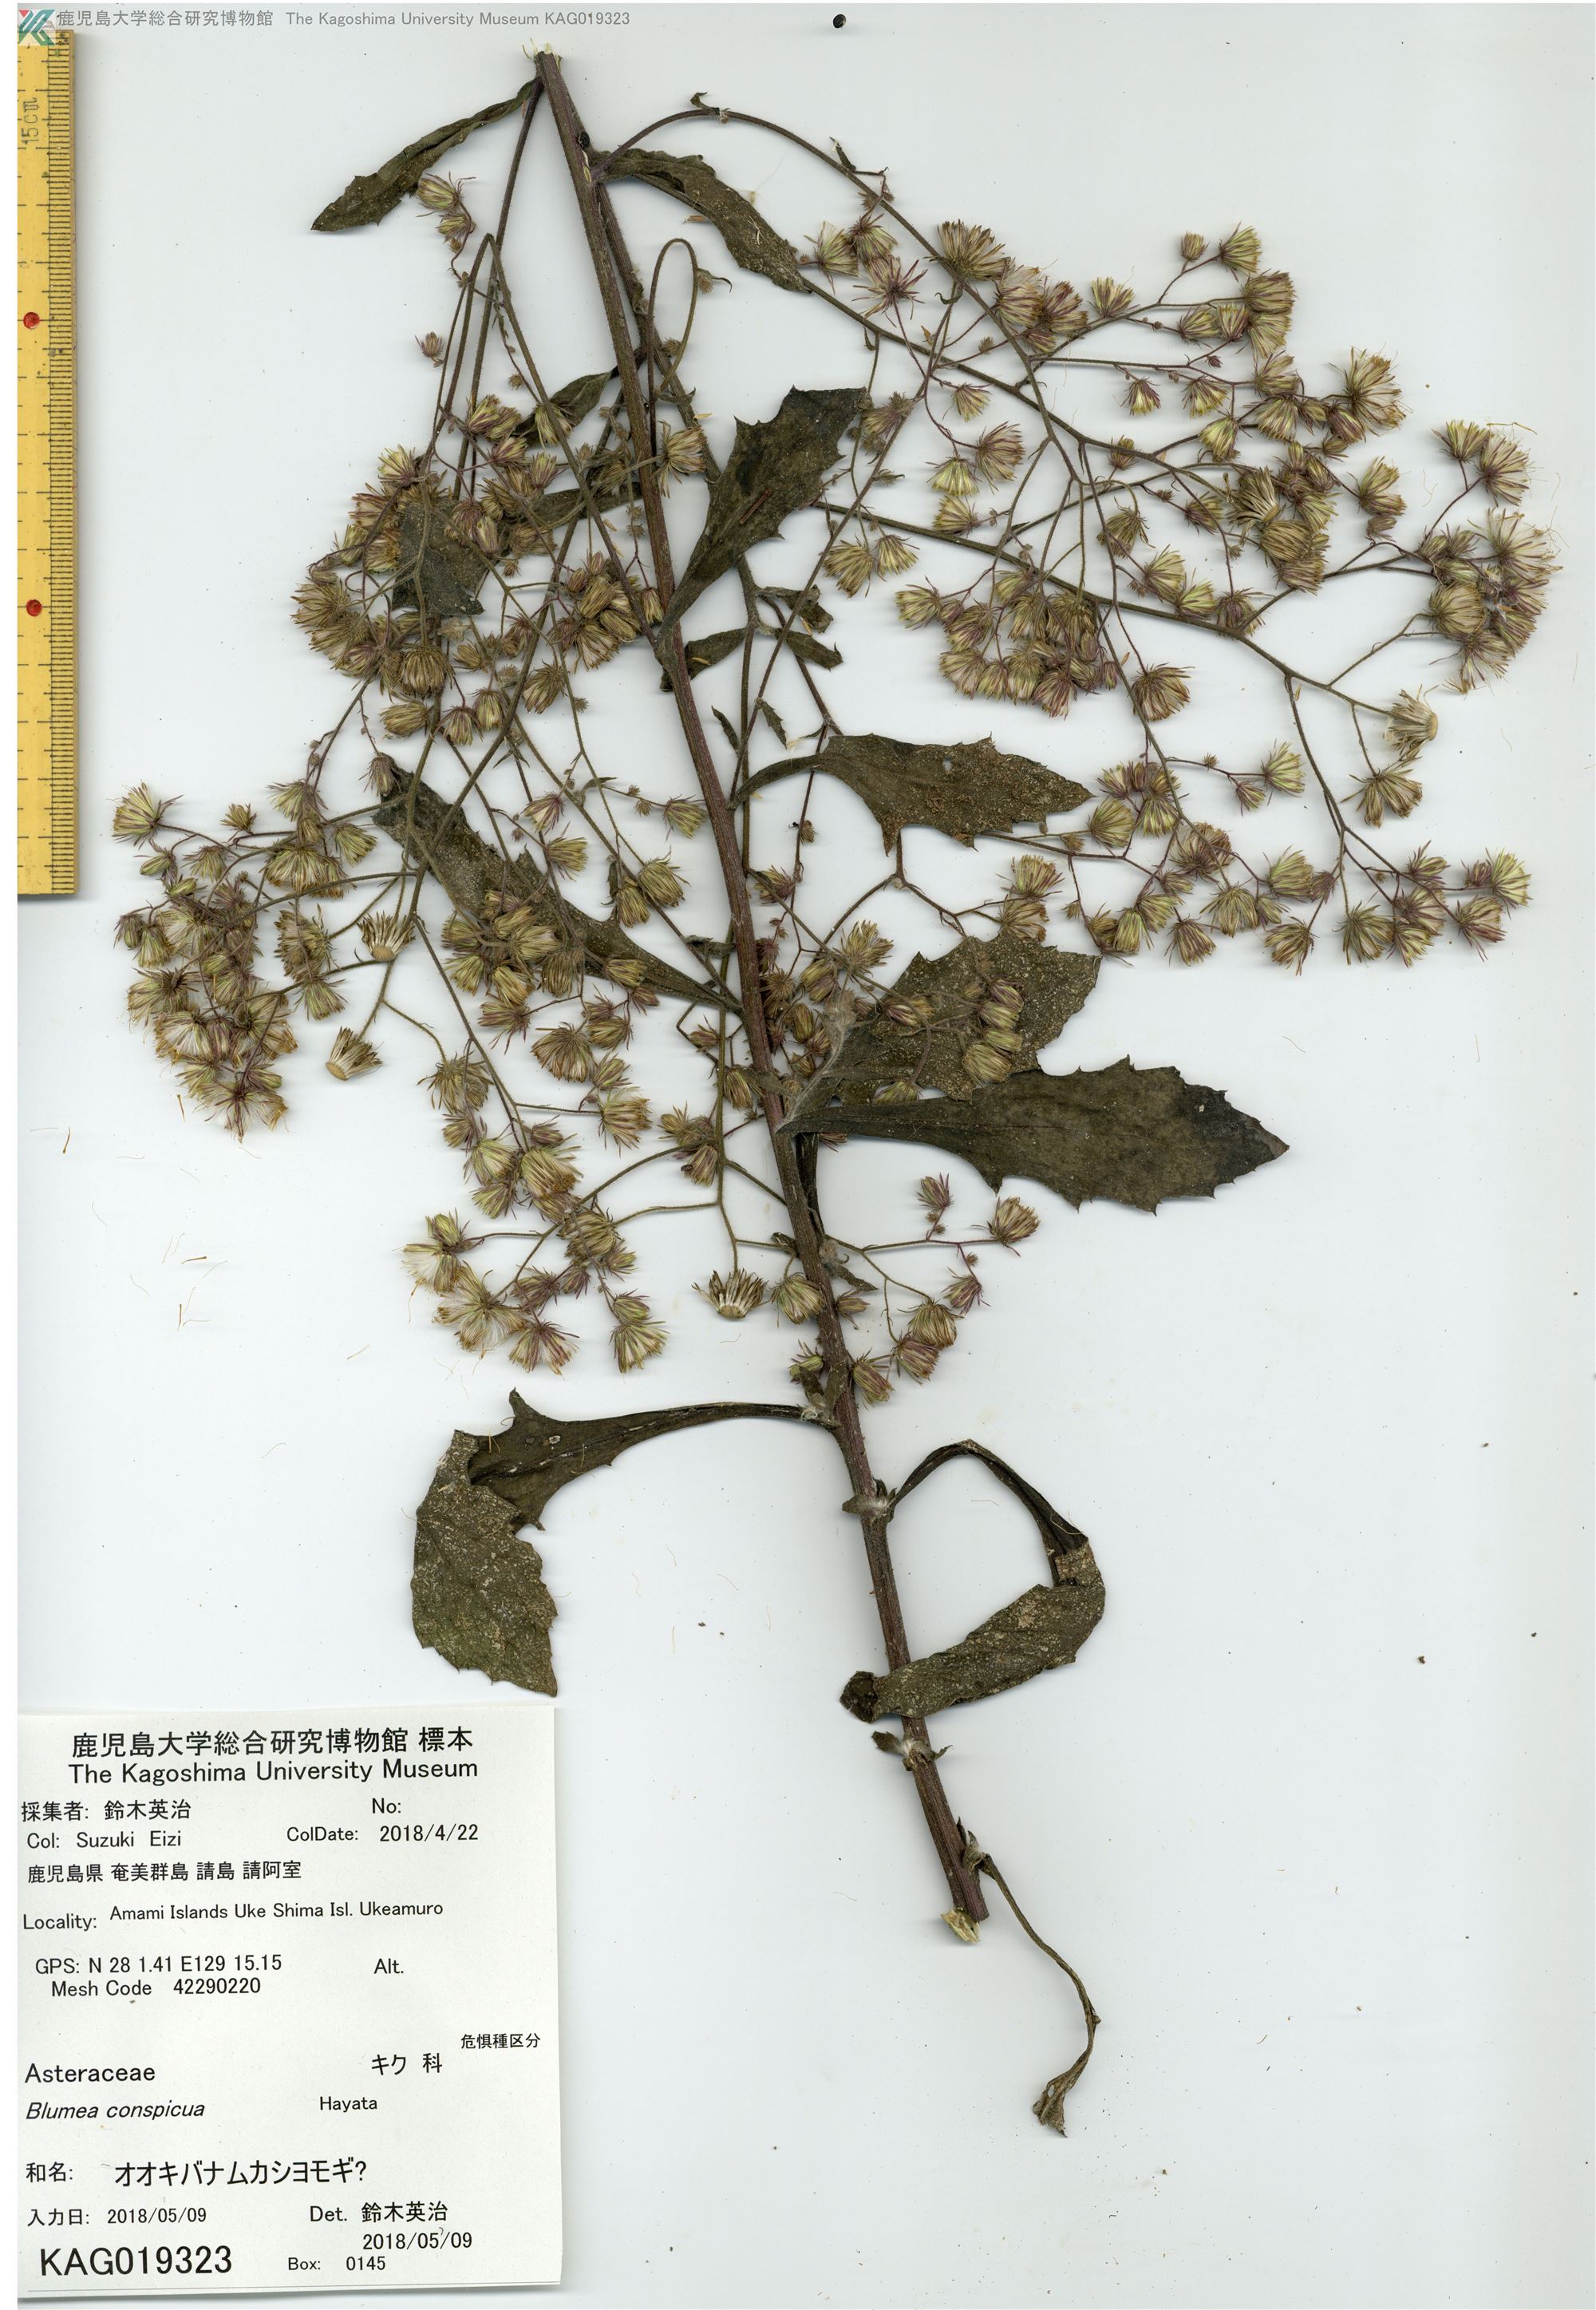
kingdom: Plantae
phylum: Tracheophyta
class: Magnoliopsida
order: Asterales
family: Asteraceae
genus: Blumea
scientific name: Blumea sinuata
